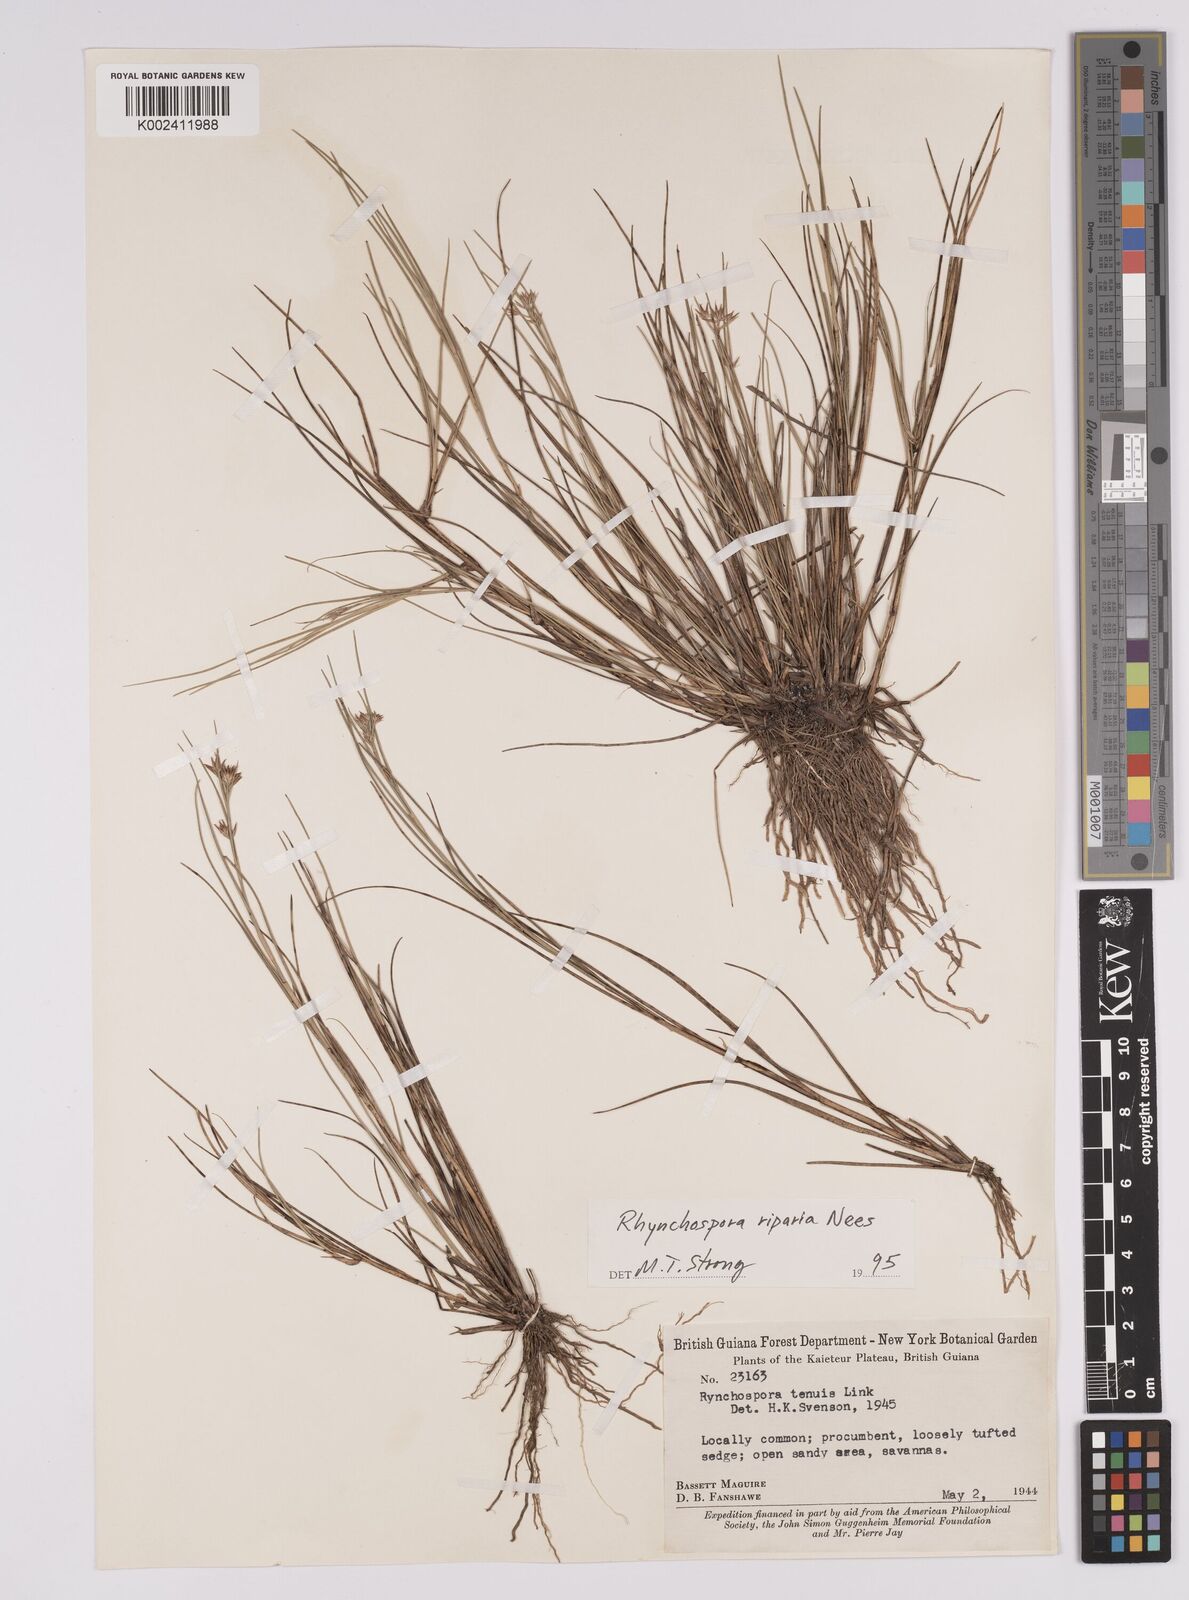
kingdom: Plantae
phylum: Tracheophyta
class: Liliopsida
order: Poales
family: Cyperaceae
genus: Rhynchospora
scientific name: Rhynchospora riparia
